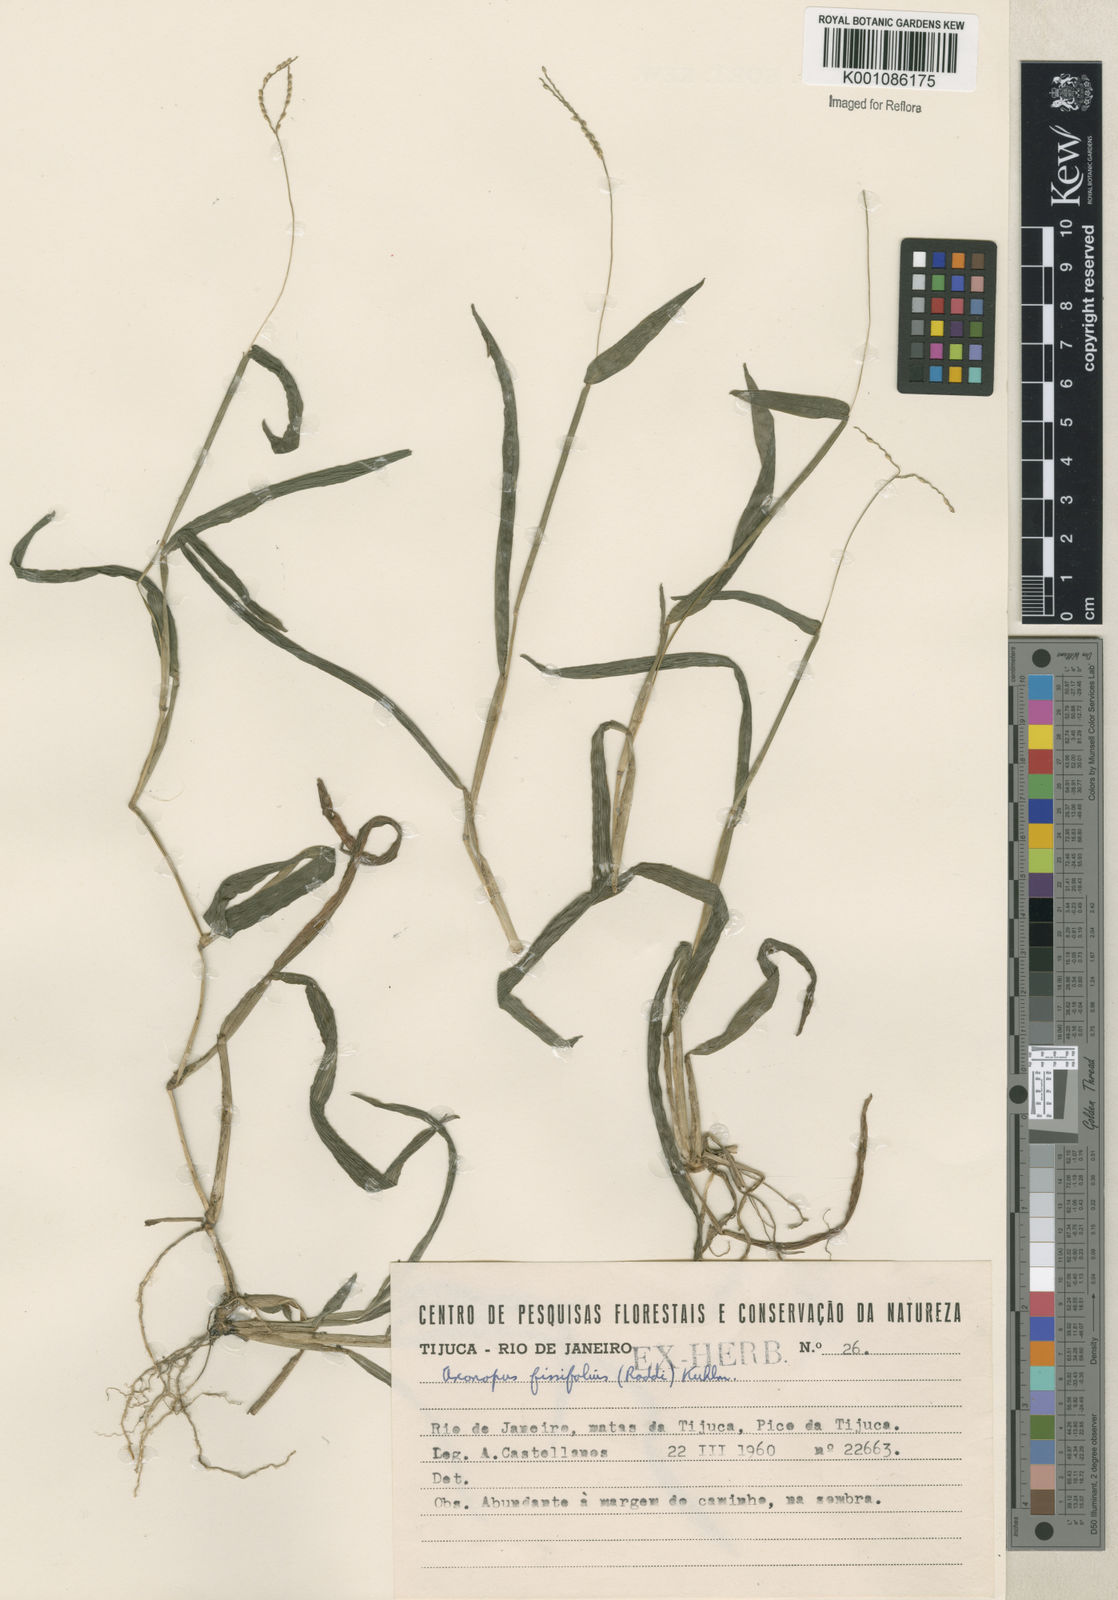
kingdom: Plantae
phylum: Tracheophyta
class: Liliopsida
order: Poales
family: Poaceae
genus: Axonopus
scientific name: Axonopus
